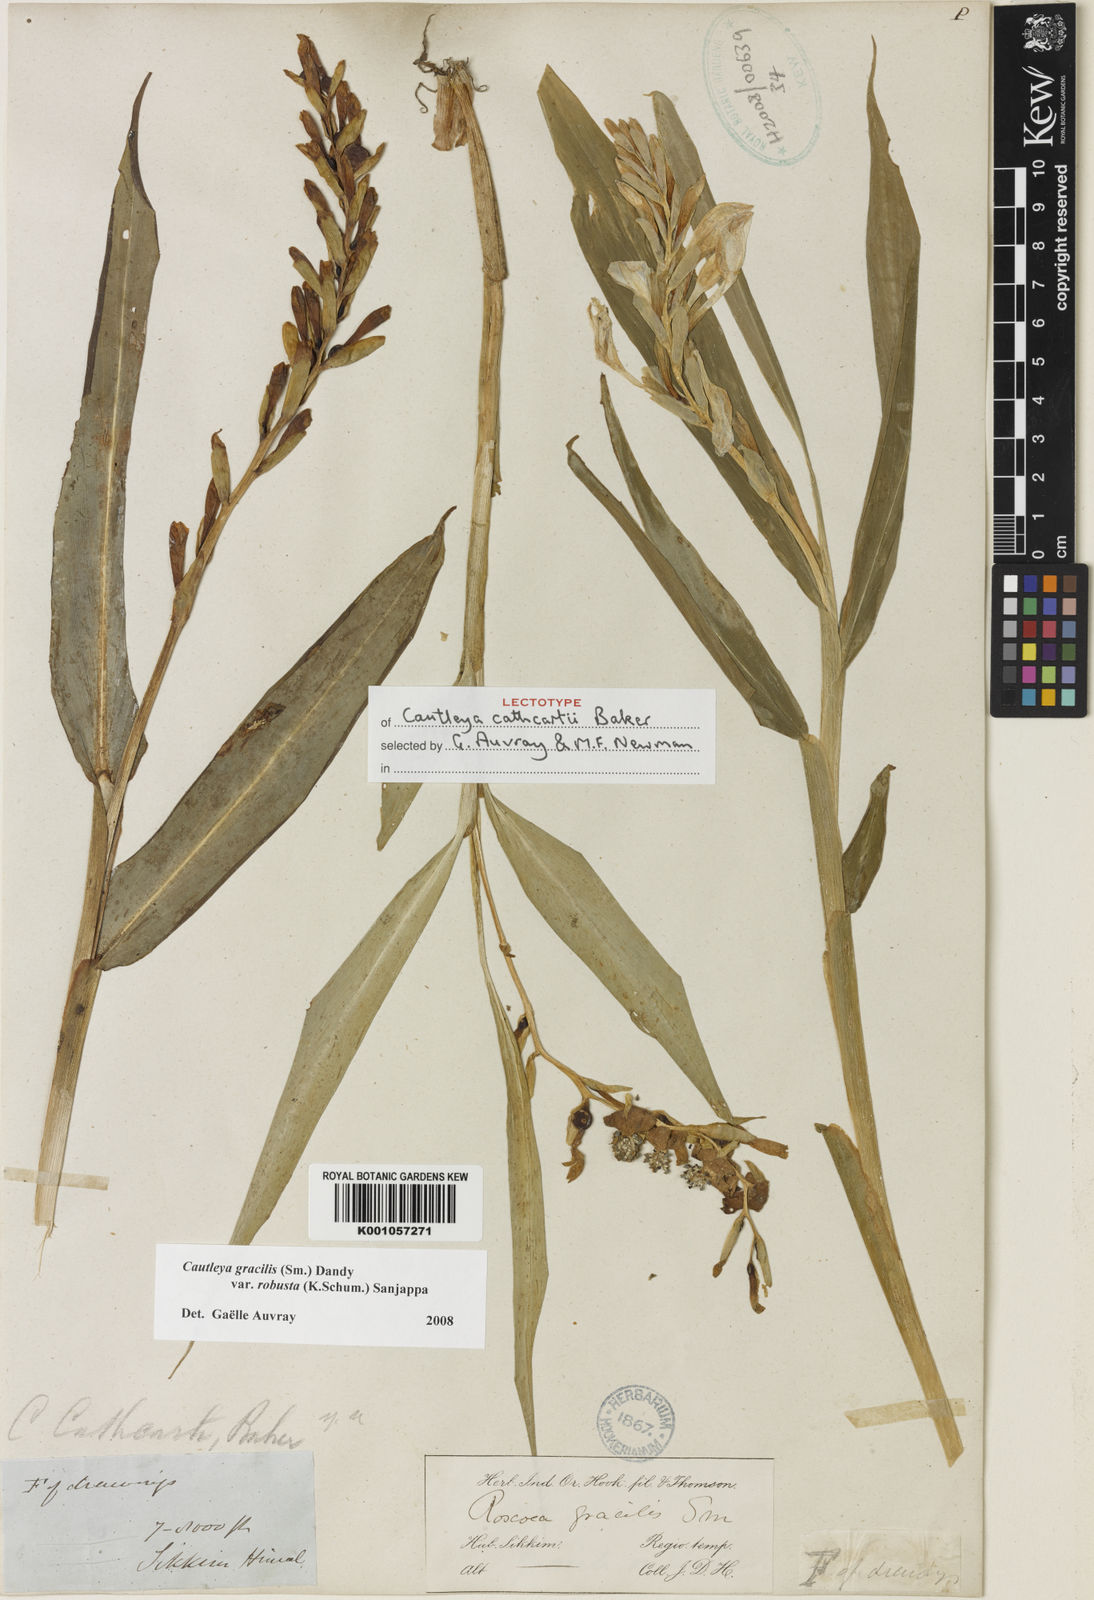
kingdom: Plantae
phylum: Tracheophyta
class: Liliopsida
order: Zingiberales
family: Zingiberaceae
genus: Cautleya
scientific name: Cautleya gracilis
